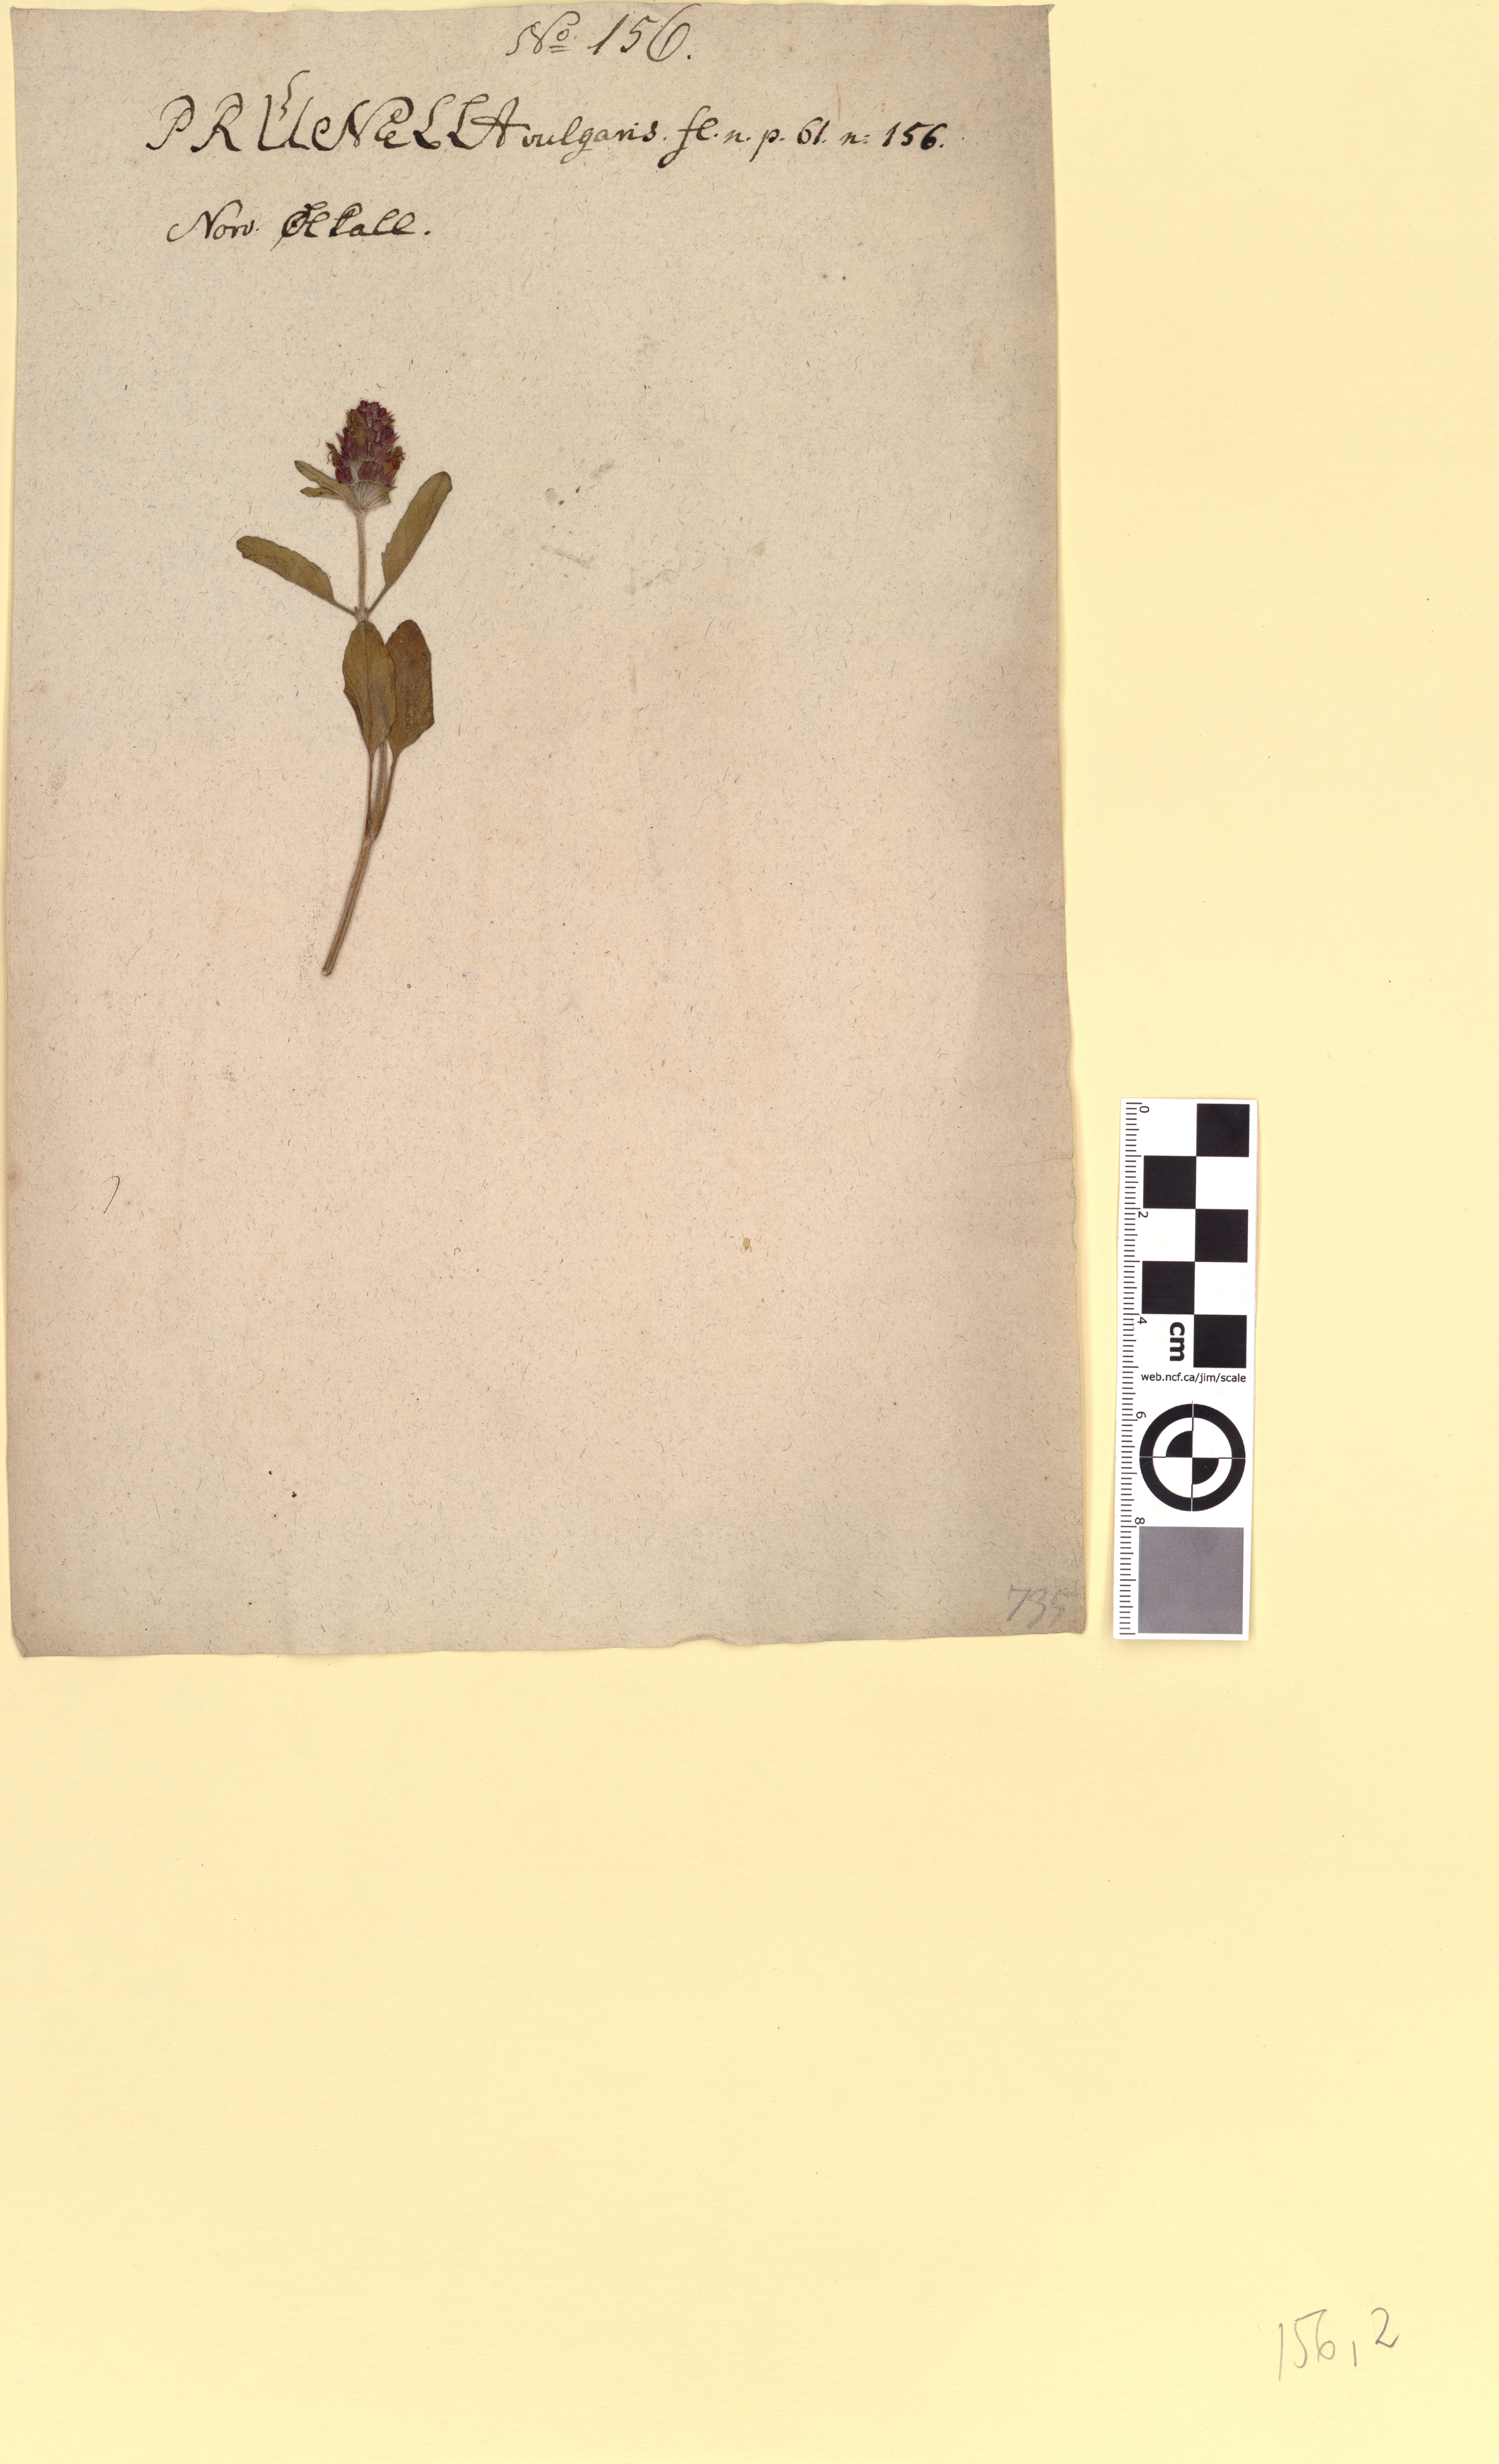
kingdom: Plantae
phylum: Tracheophyta
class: Magnoliopsida
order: Lamiales
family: Lamiaceae
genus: Prunella
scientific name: Prunella vulgaris
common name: Heal-all
